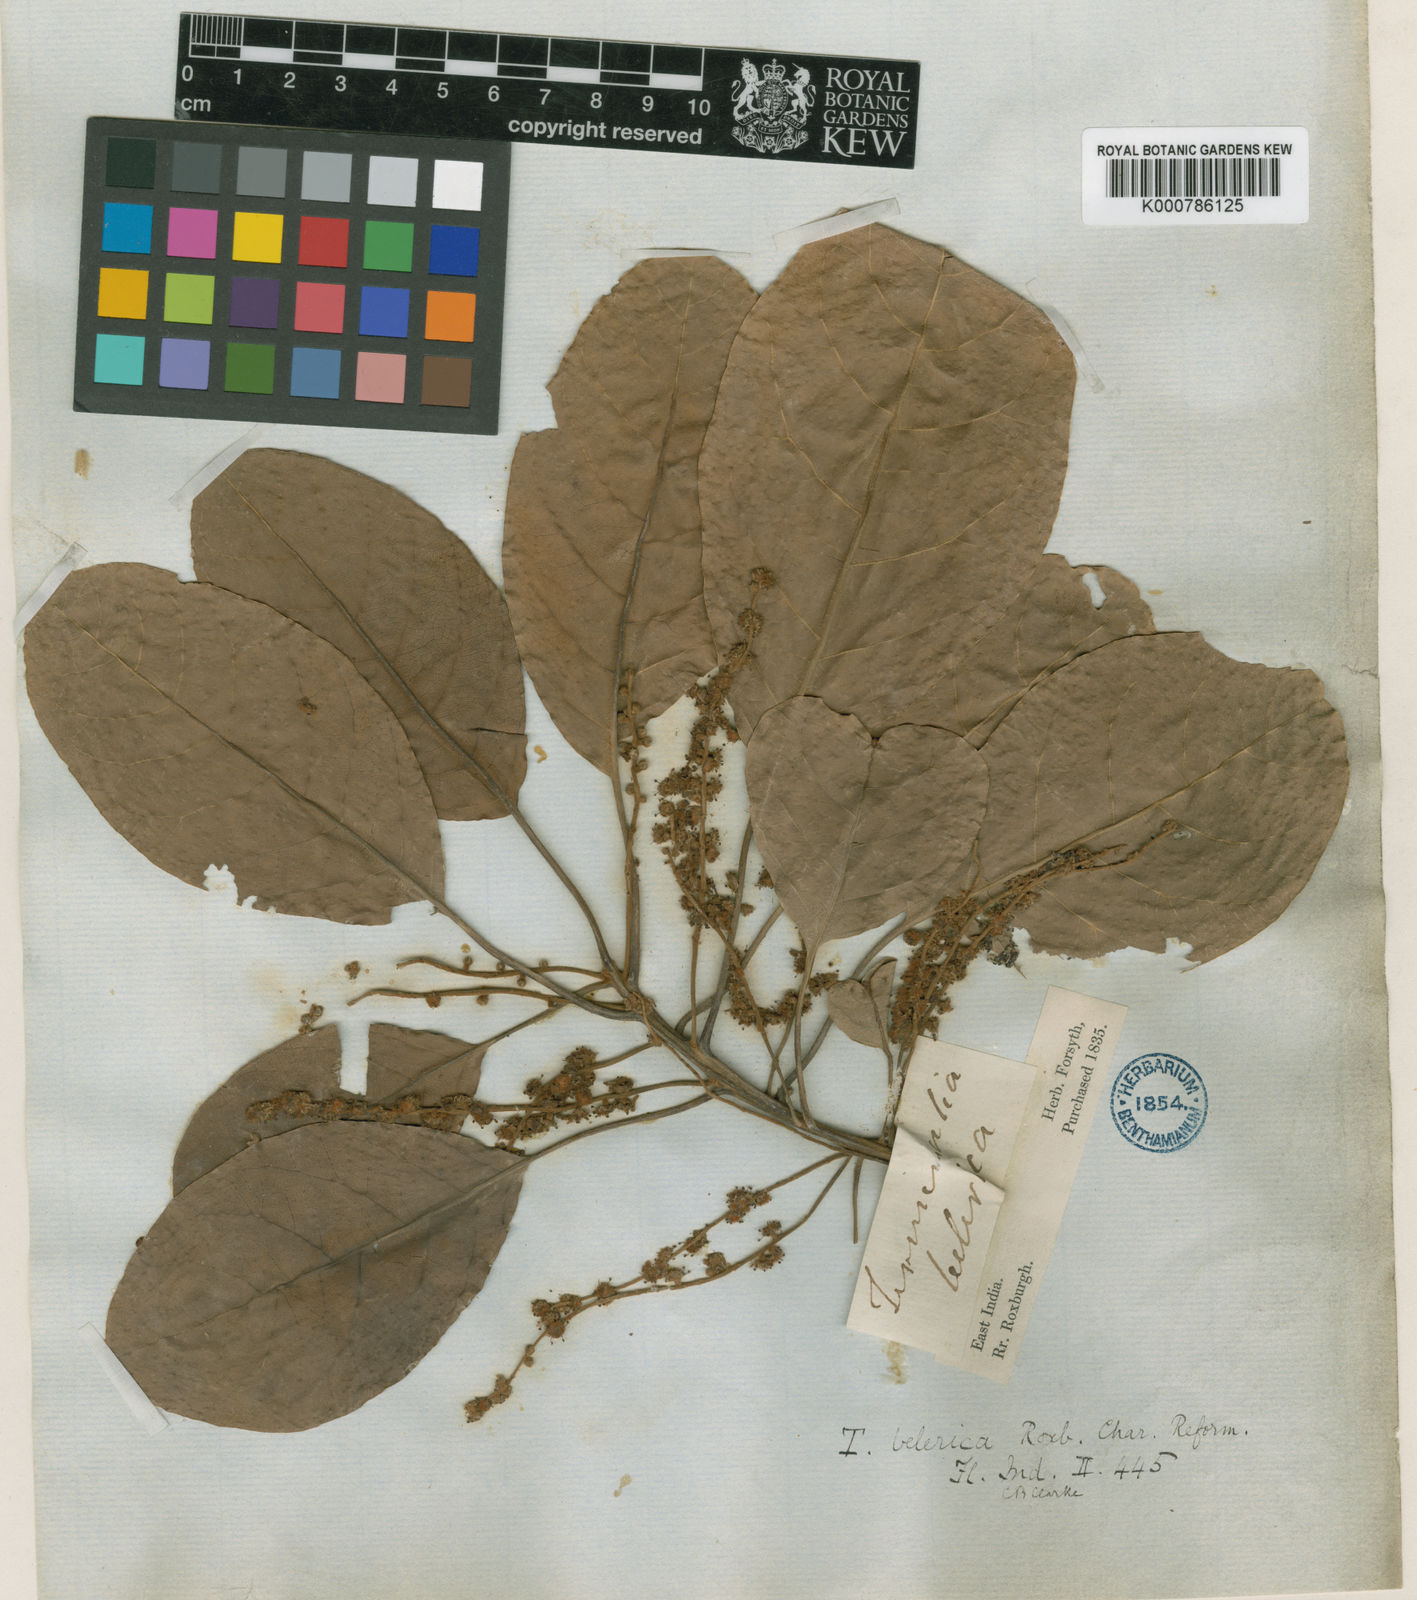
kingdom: Plantae
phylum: Tracheophyta
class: Magnoliopsida
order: Myrtales
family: Combretaceae
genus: Terminalia
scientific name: Terminalia bellirica
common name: Beleric myrobalan
